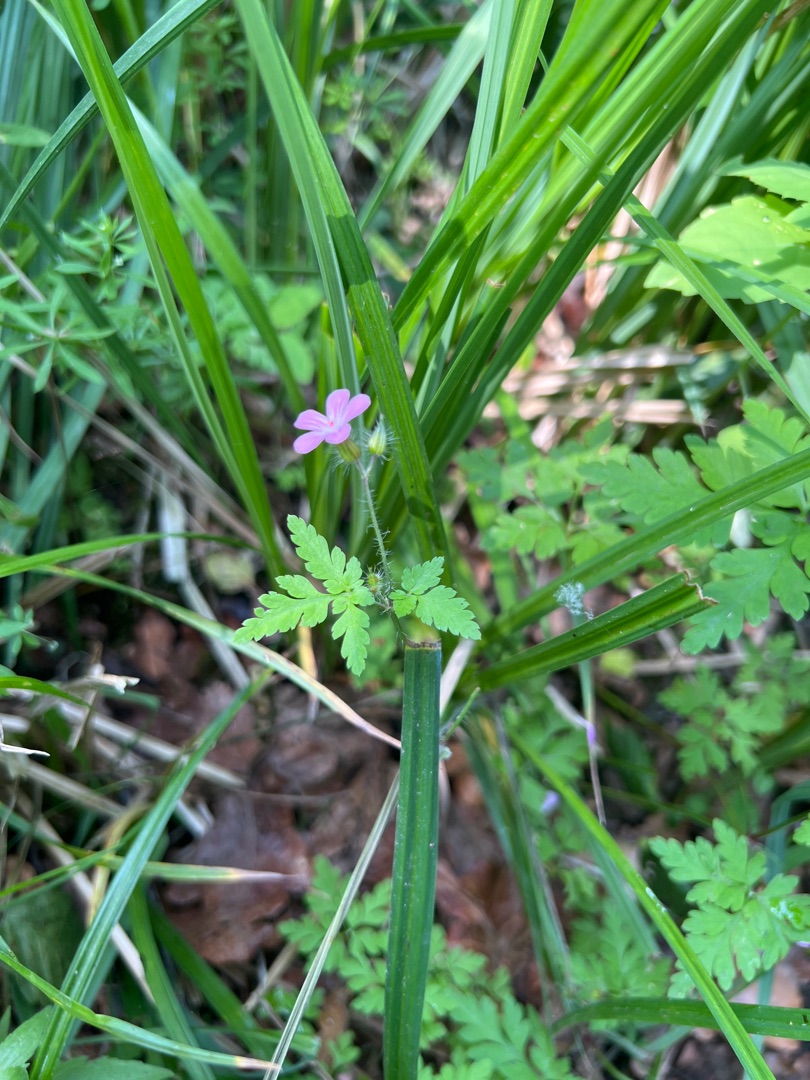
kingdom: Plantae
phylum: Tracheophyta
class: Magnoliopsida
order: Geraniales
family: Geraniaceae
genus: Geranium
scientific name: Geranium robertianum
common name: Stinkende storkenæb
